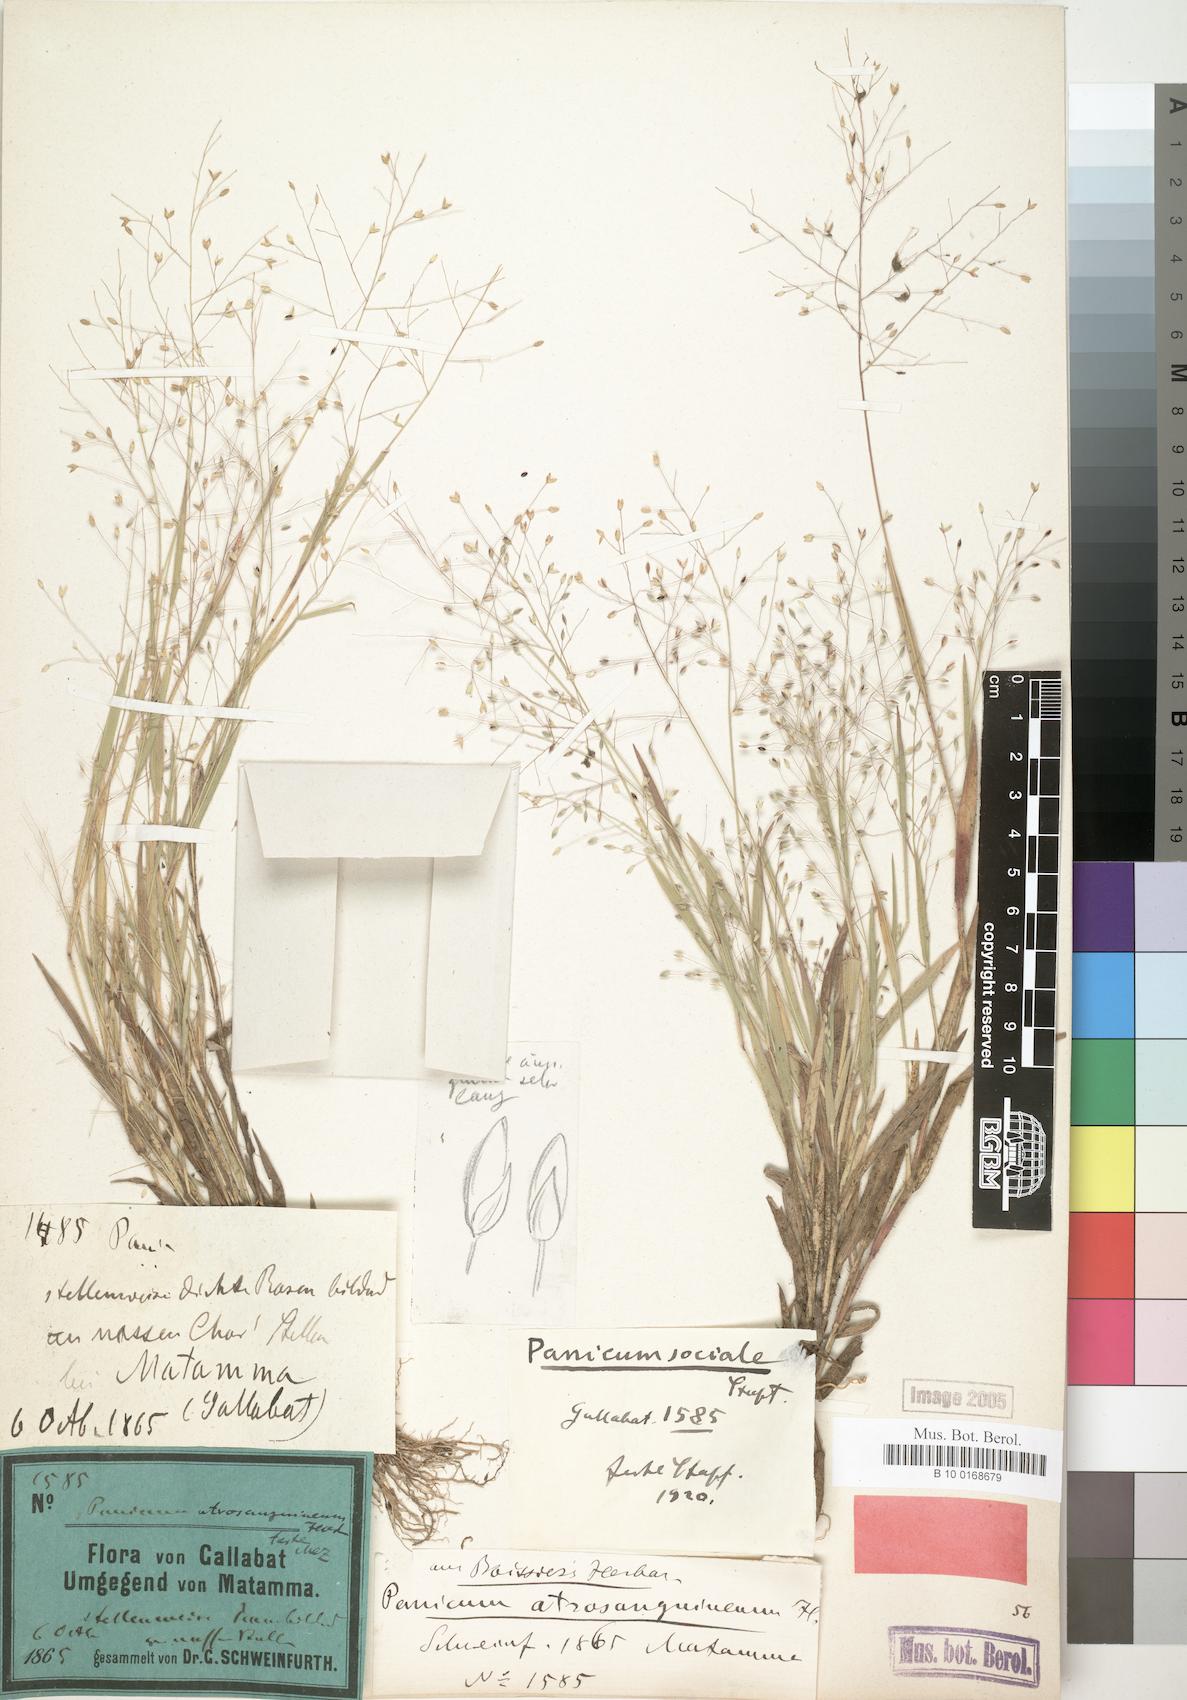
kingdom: Plantae
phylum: Tracheophyta
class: Liliopsida
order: Poales
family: Poaceae
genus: Panicum
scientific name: Panicum atrosanguineum
